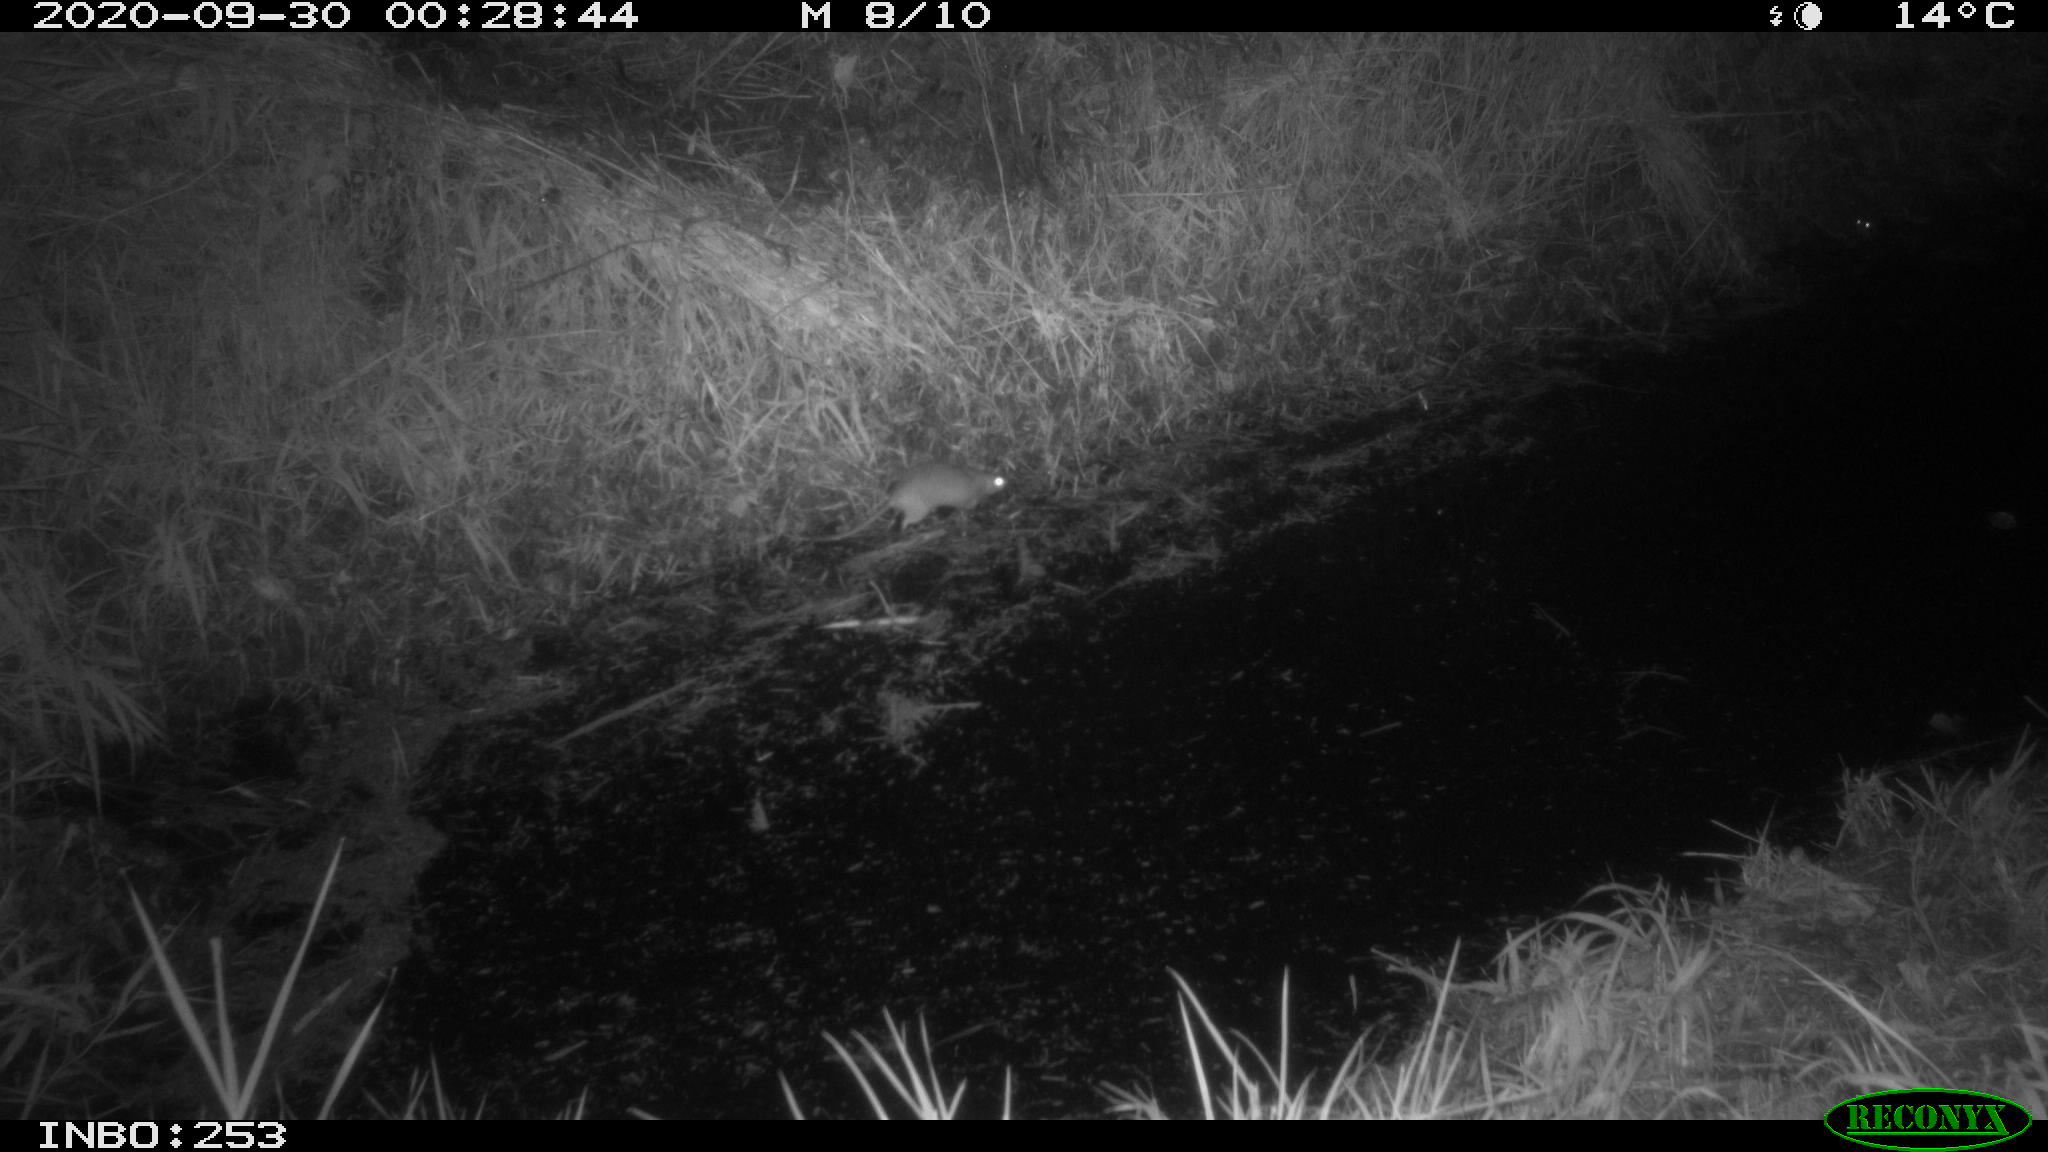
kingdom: Animalia
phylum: Chordata
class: Mammalia
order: Rodentia
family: Muridae
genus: Rattus
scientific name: Rattus norvegicus
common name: Brown rat
